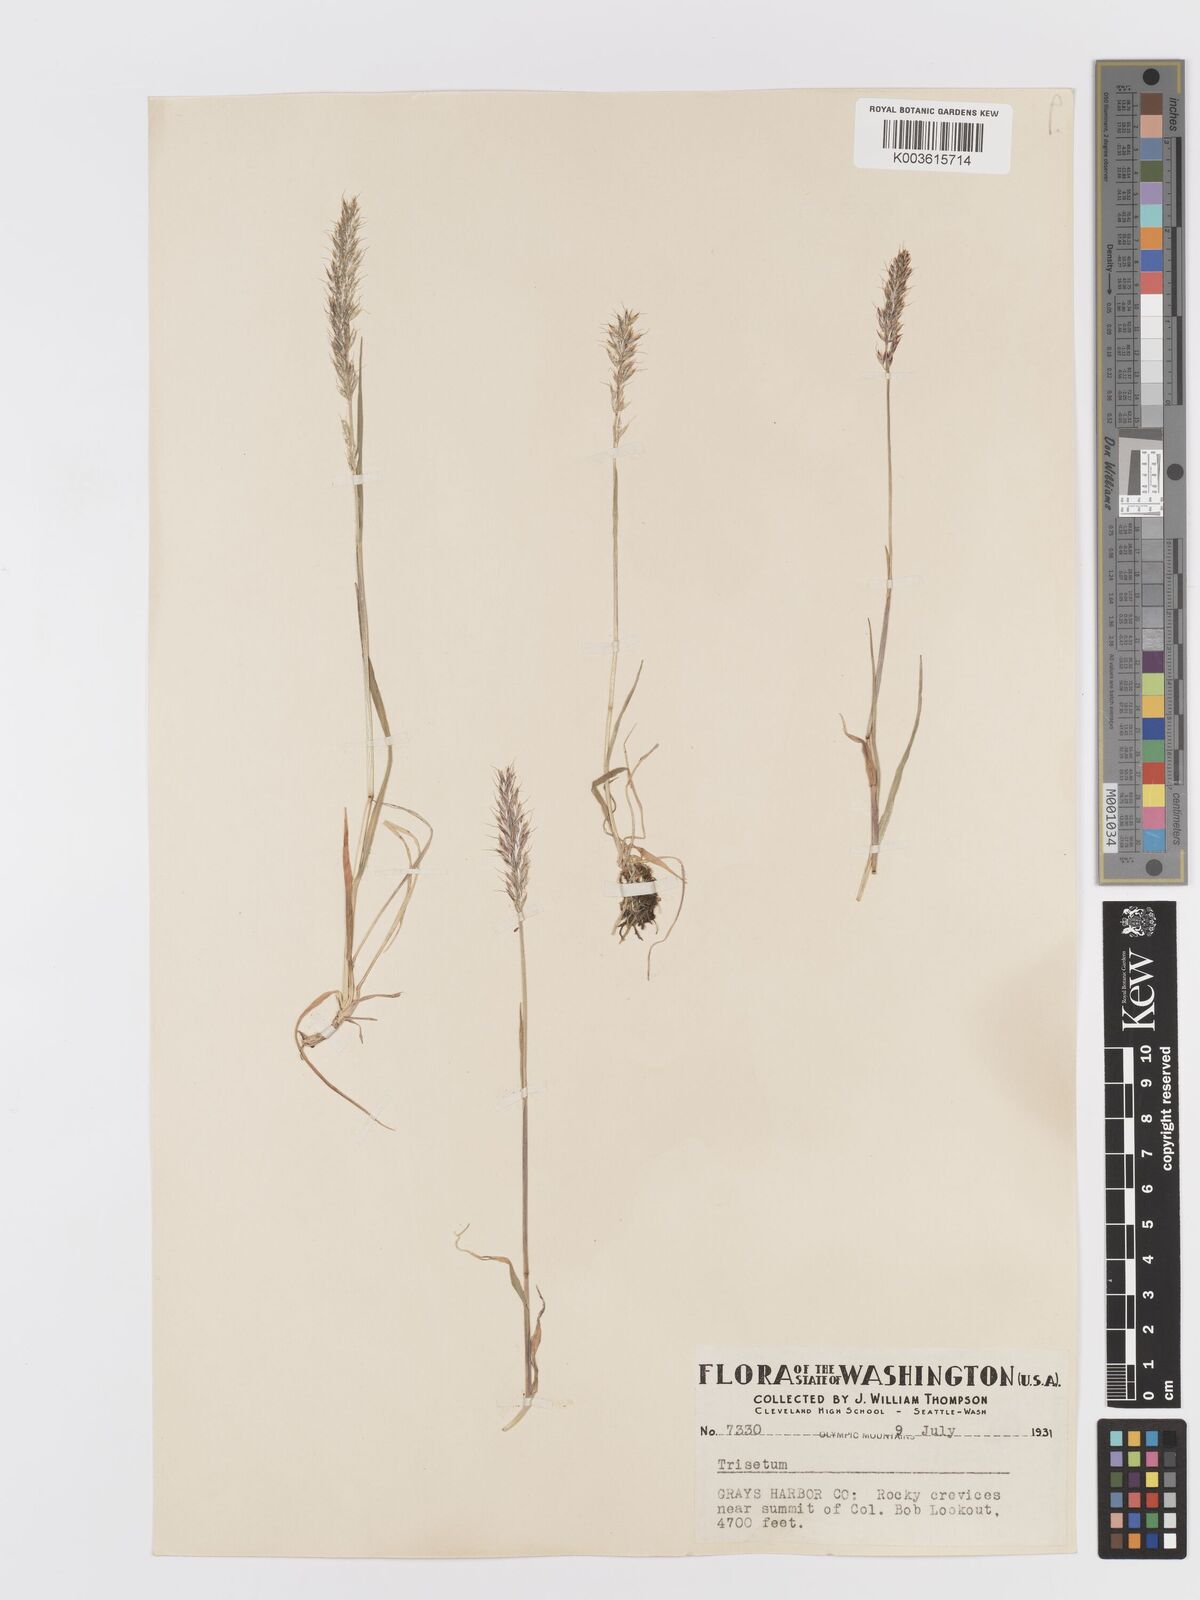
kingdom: Plantae
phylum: Tracheophyta
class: Liliopsida
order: Poales
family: Poaceae
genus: Koeleria
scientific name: Koeleria spicata
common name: Mountain trisetum
